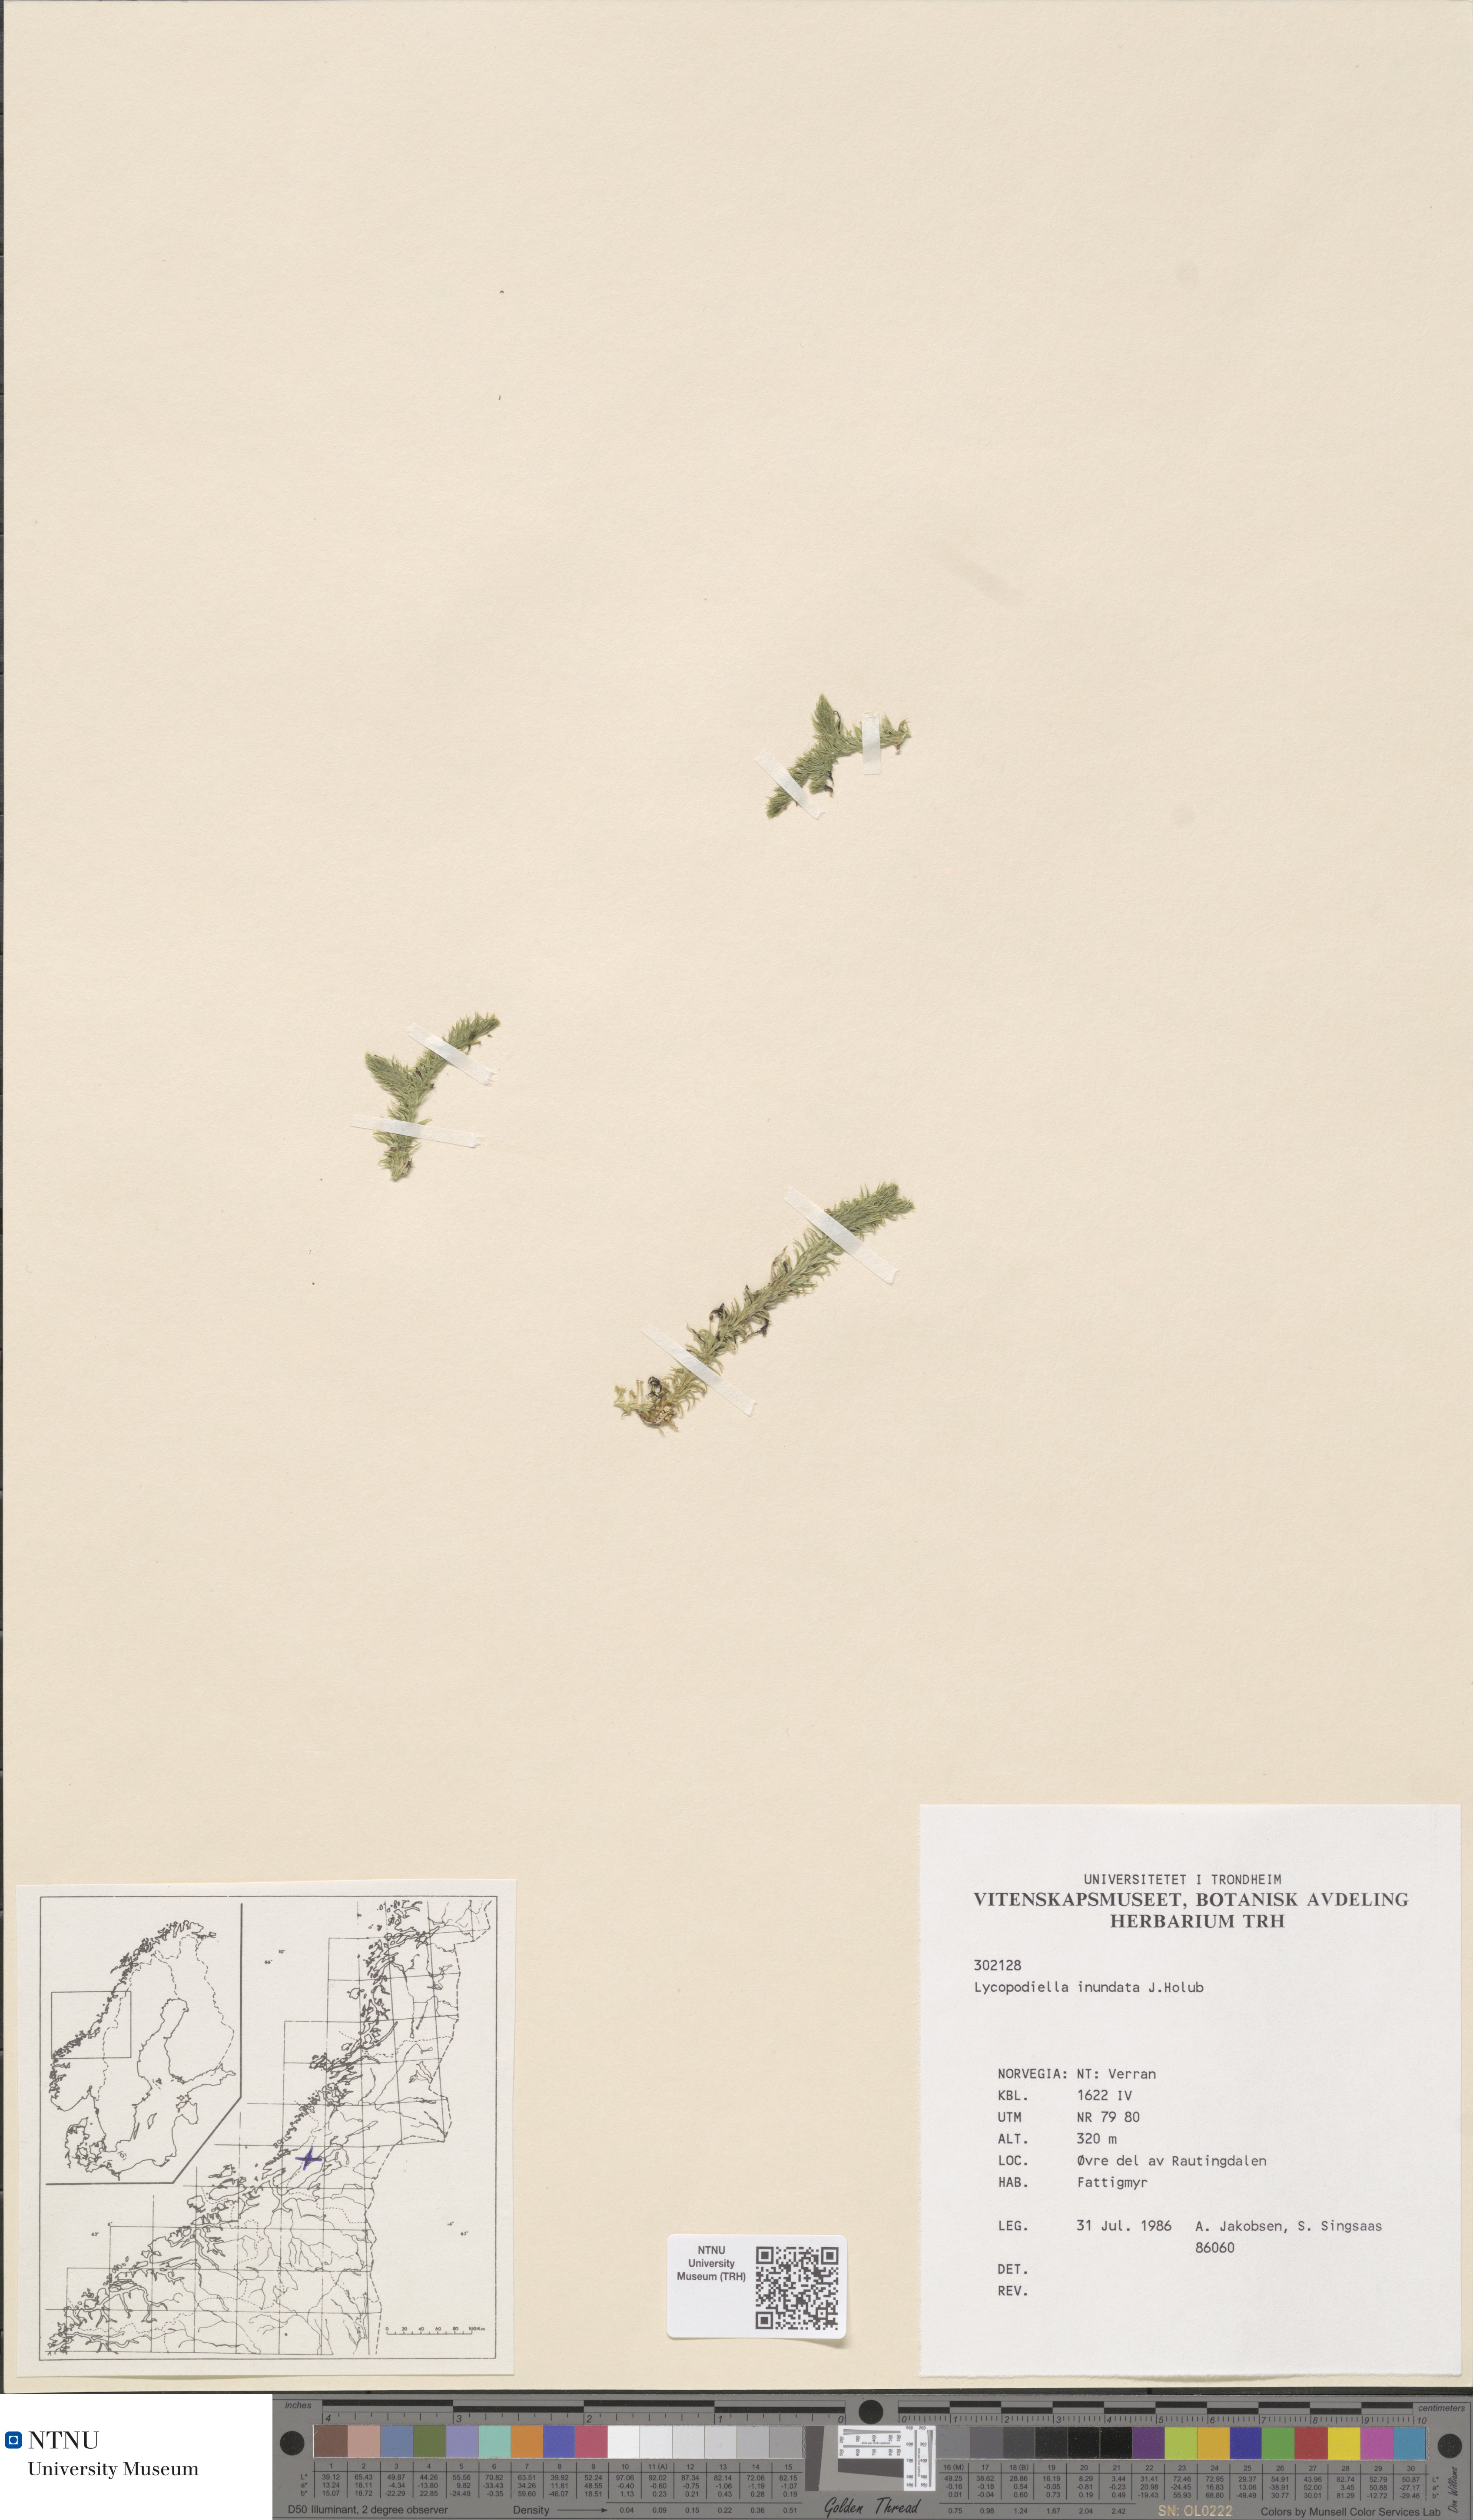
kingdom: Plantae
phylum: Tracheophyta
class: Lycopodiopsida
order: Lycopodiales
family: Lycopodiaceae
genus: Lycopodiella
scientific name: Lycopodiella inundata
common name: Marsh clubmoss
